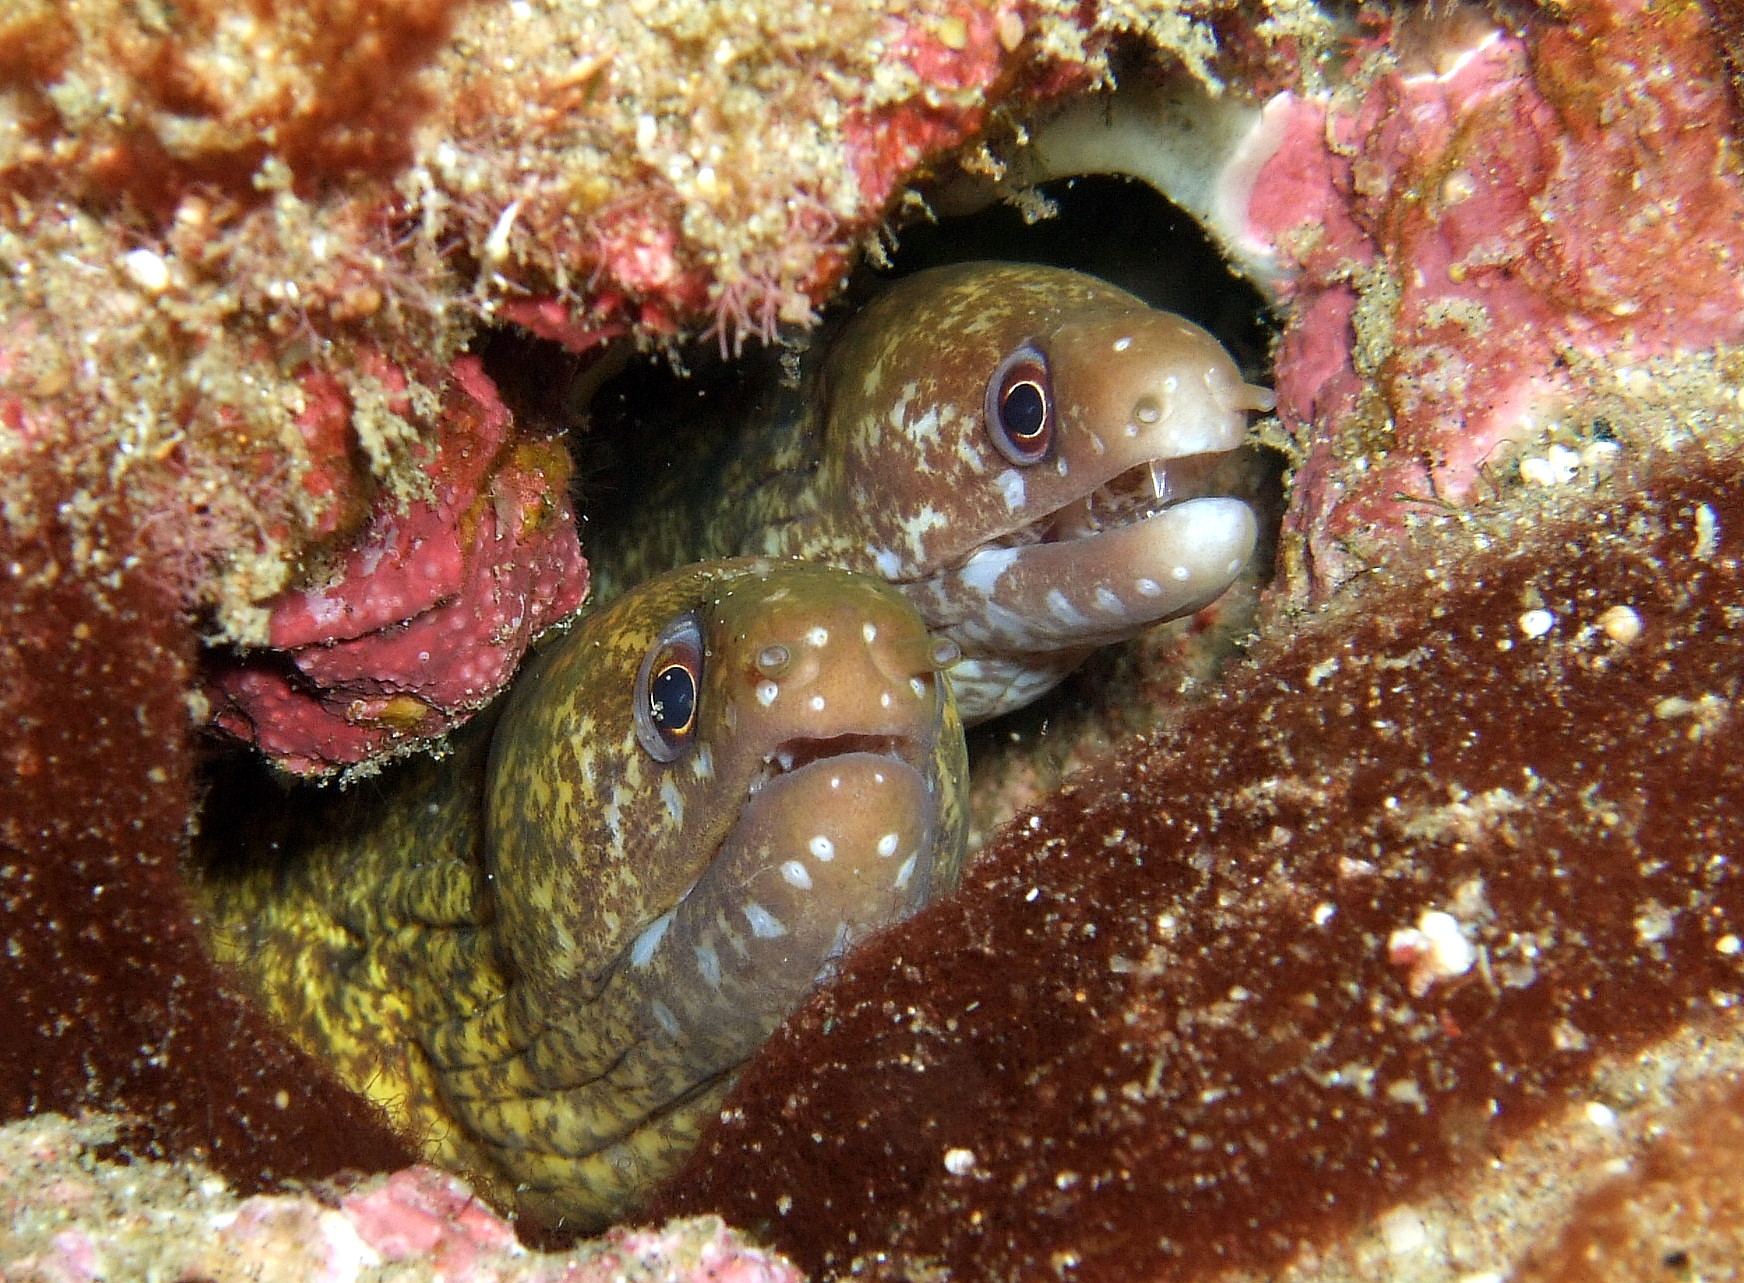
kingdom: Animalia
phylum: Chordata
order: Anguilliformes
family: Muraenidae
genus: Gymnothorax
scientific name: Gymnothorax chilospilus
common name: Lipspot moray
